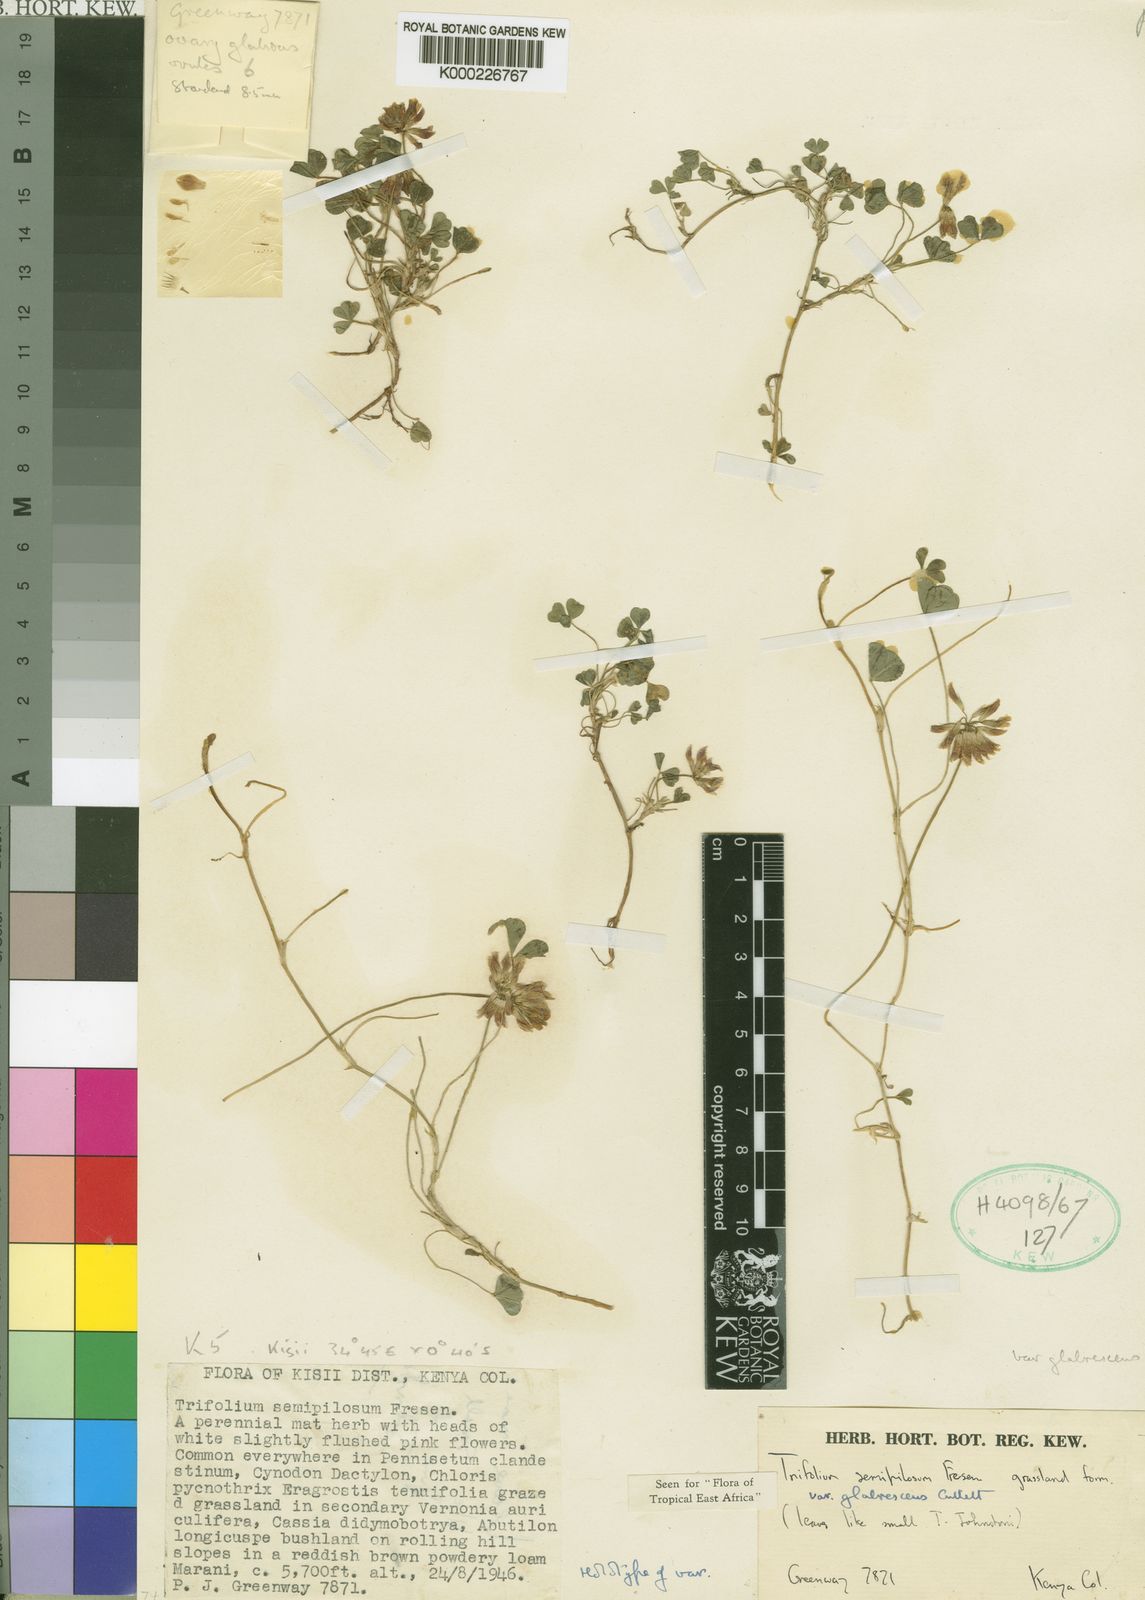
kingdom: Plantae
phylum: Tracheophyta
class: Magnoliopsida
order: Fabales
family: Fabaceae
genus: Trifolium
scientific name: Trifolium semipilosum
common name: Kenya clover
